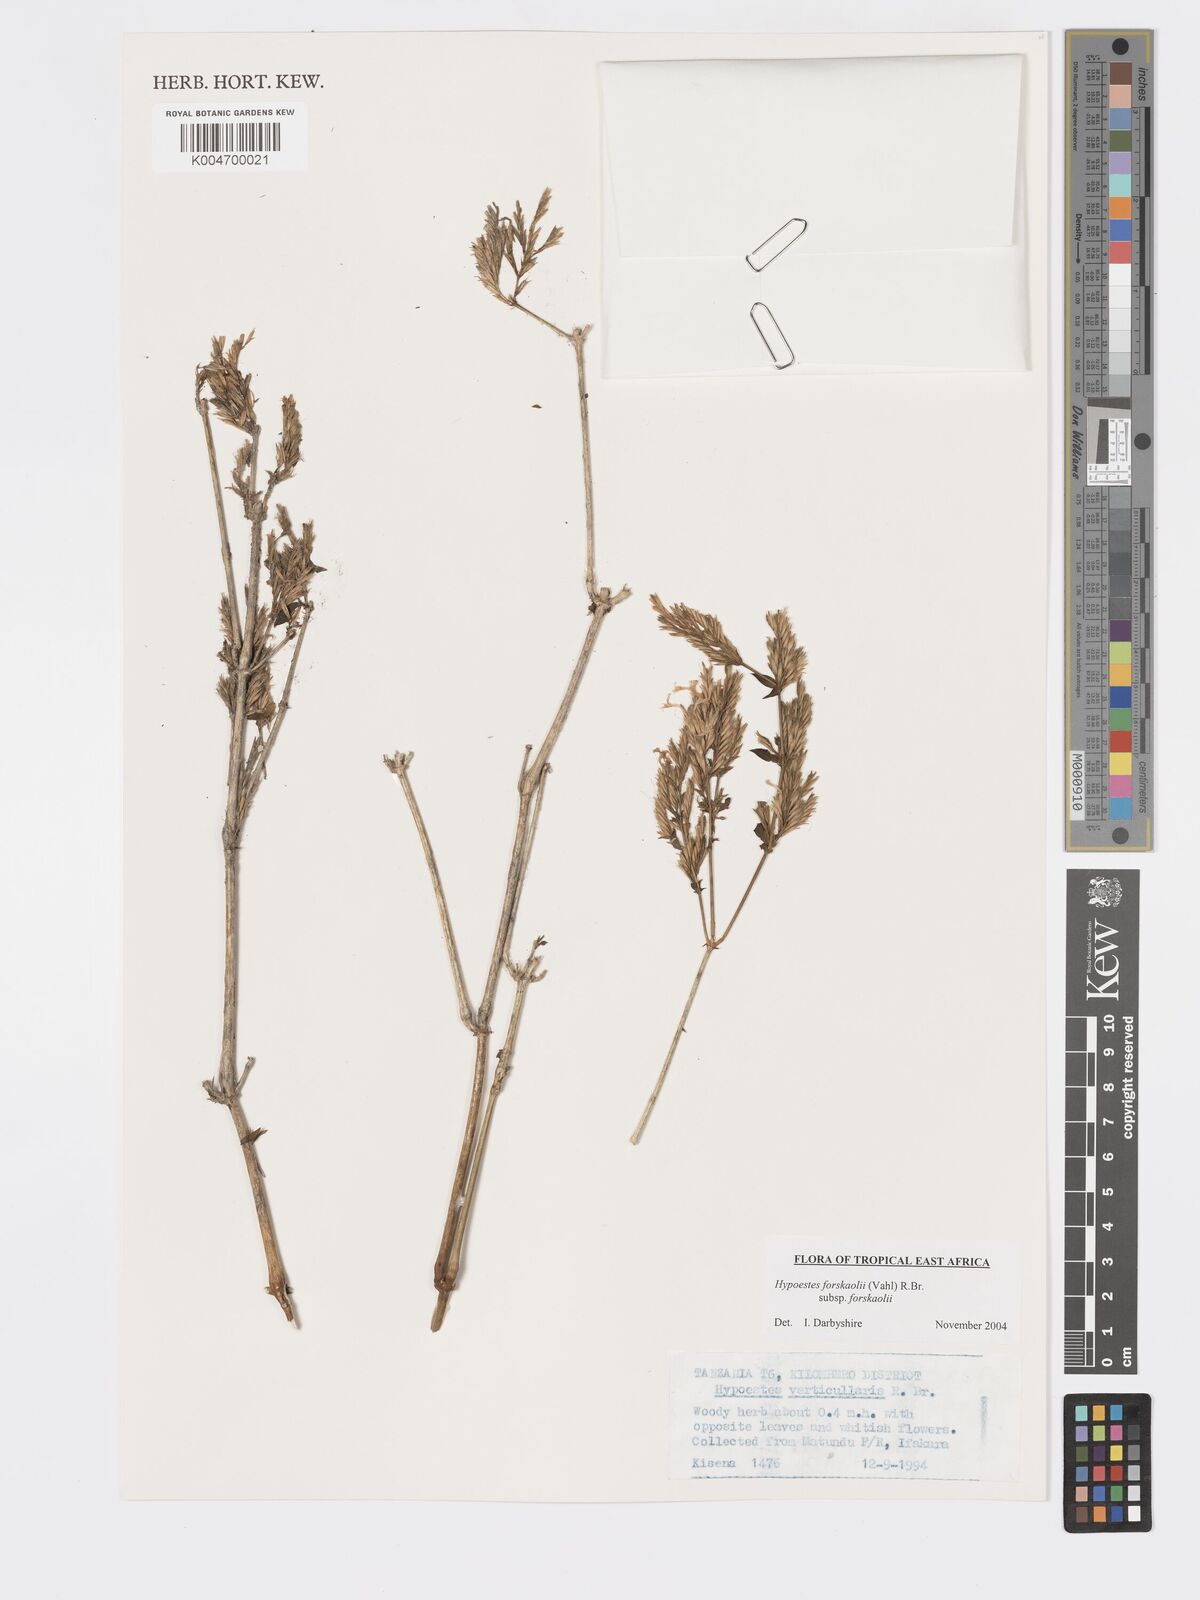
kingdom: Plantae
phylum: Tracheophyta
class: Magnoliopsida
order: Lamiales
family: Acanthaceae
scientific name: Acanthaceae
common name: Acanthaceae
